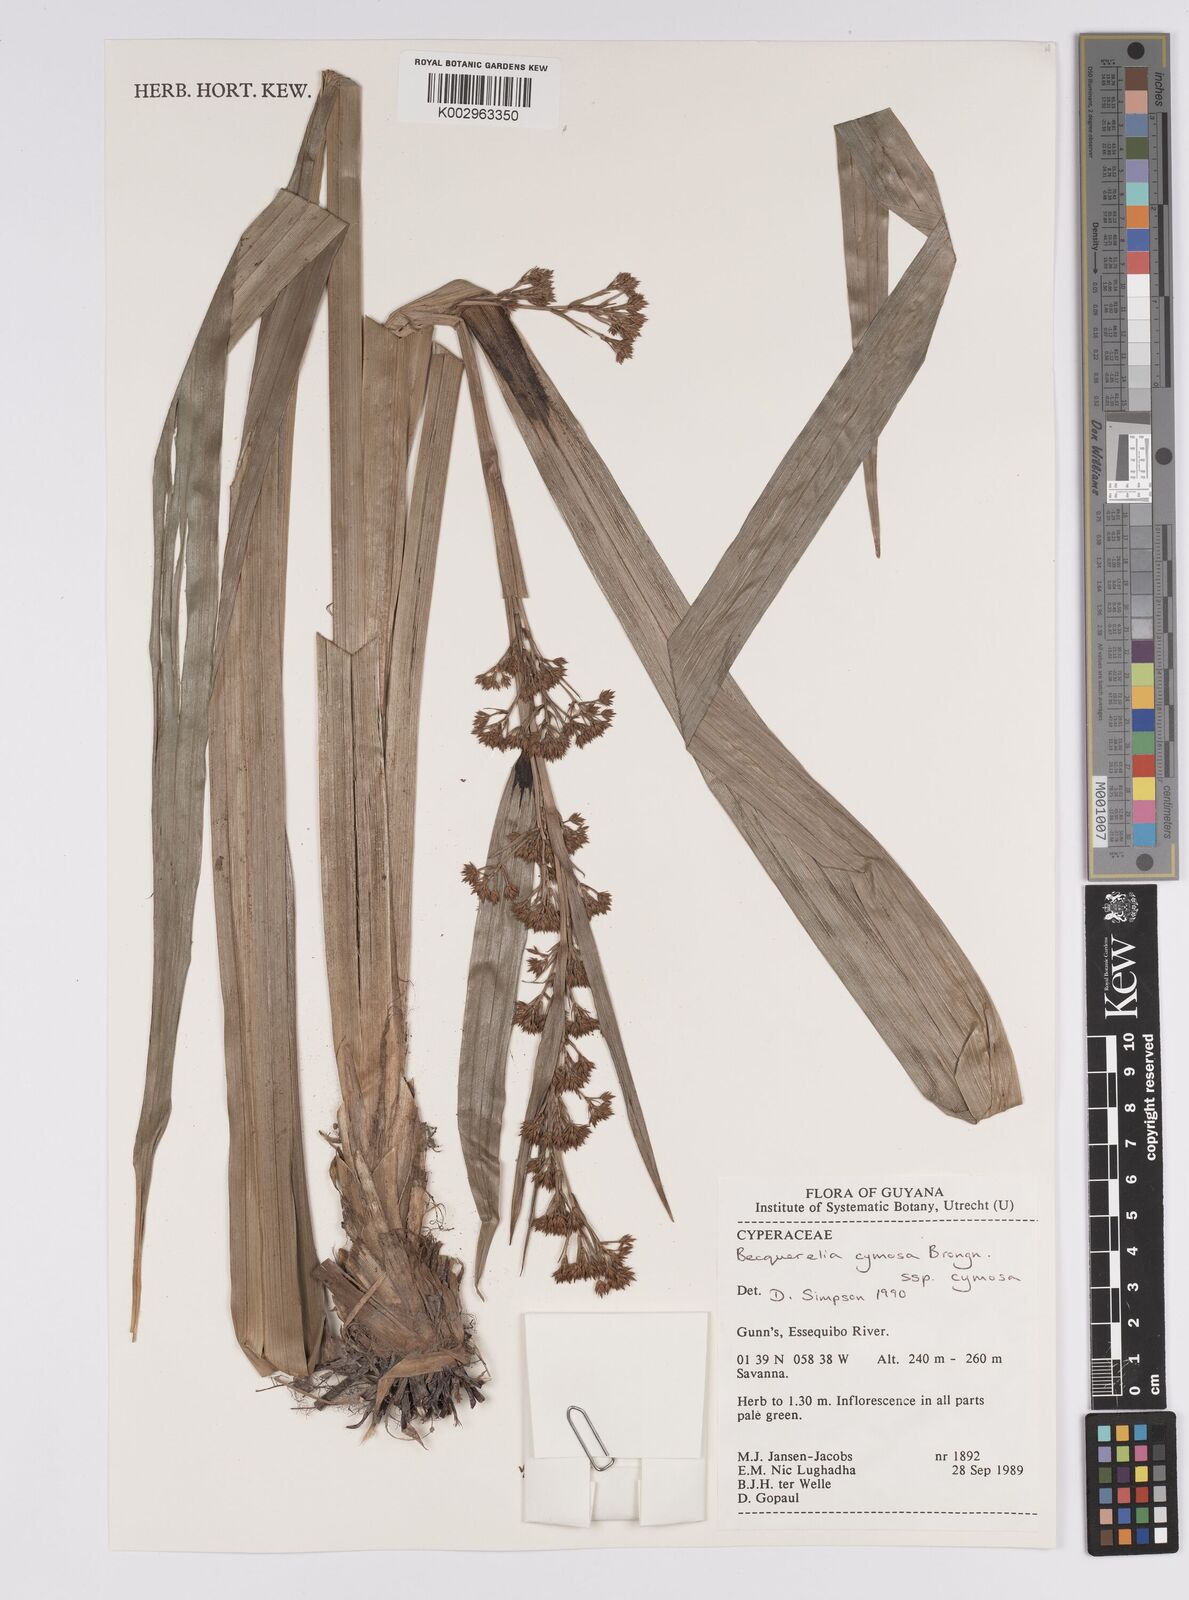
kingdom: Plantae
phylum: Tracheophyta
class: Liliopsida
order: Poales
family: Cyperaceae
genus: Becquerelia
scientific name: Becquerelia cymosa
